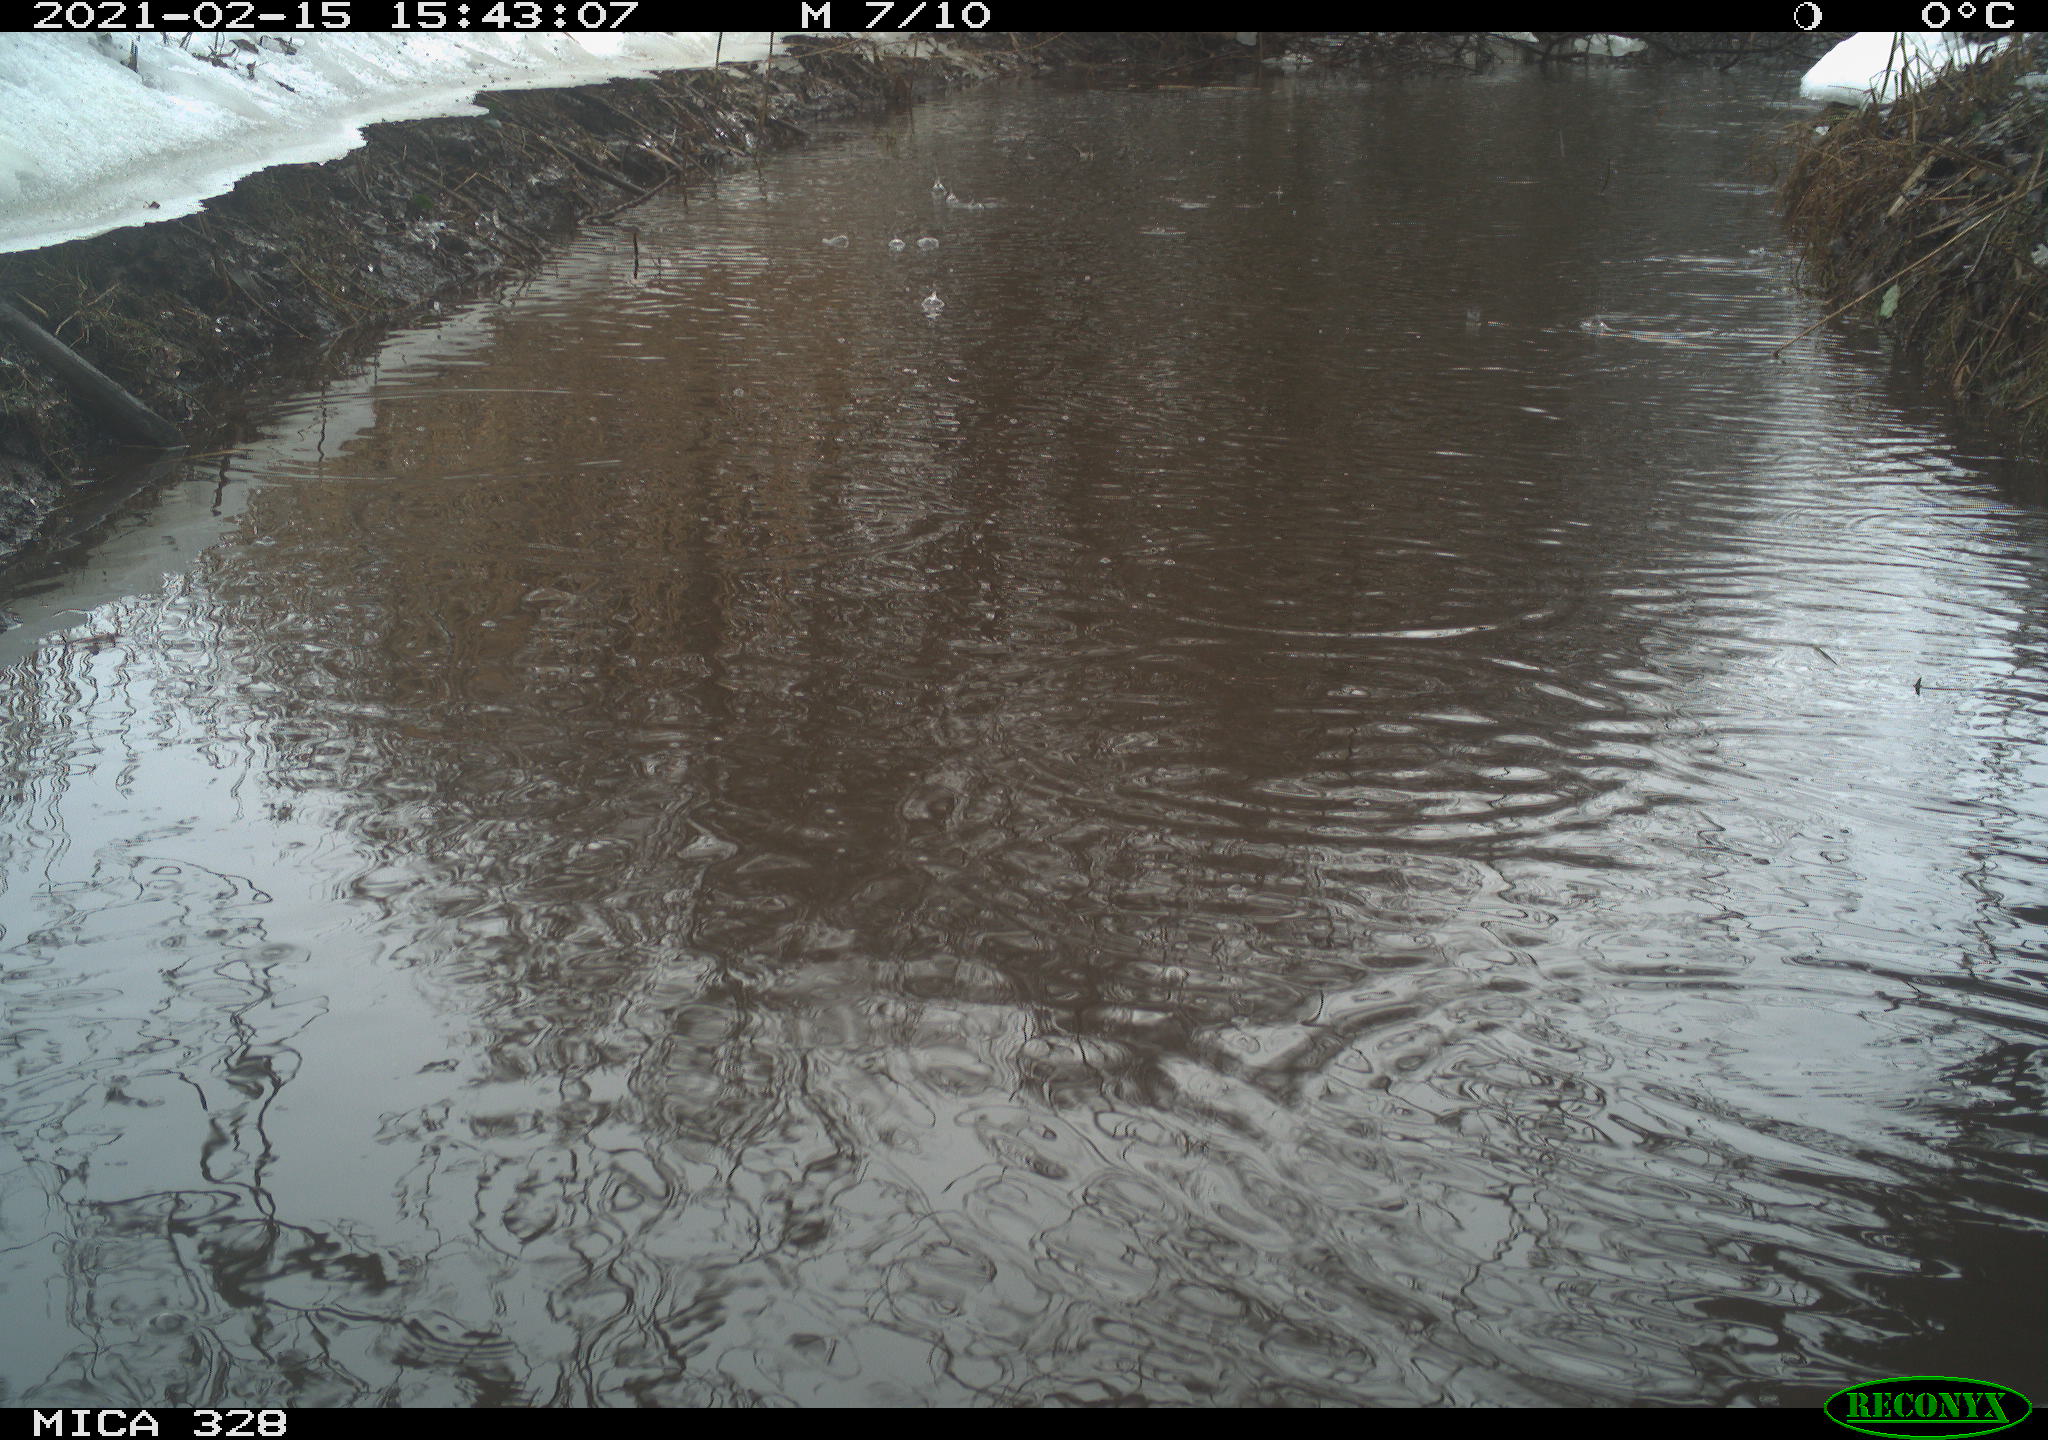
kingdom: Animalia
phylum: Chordata
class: Aves
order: Pelecaniformes
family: Ardeidae
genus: Ardea
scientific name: Ardea alba
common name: Great egret
